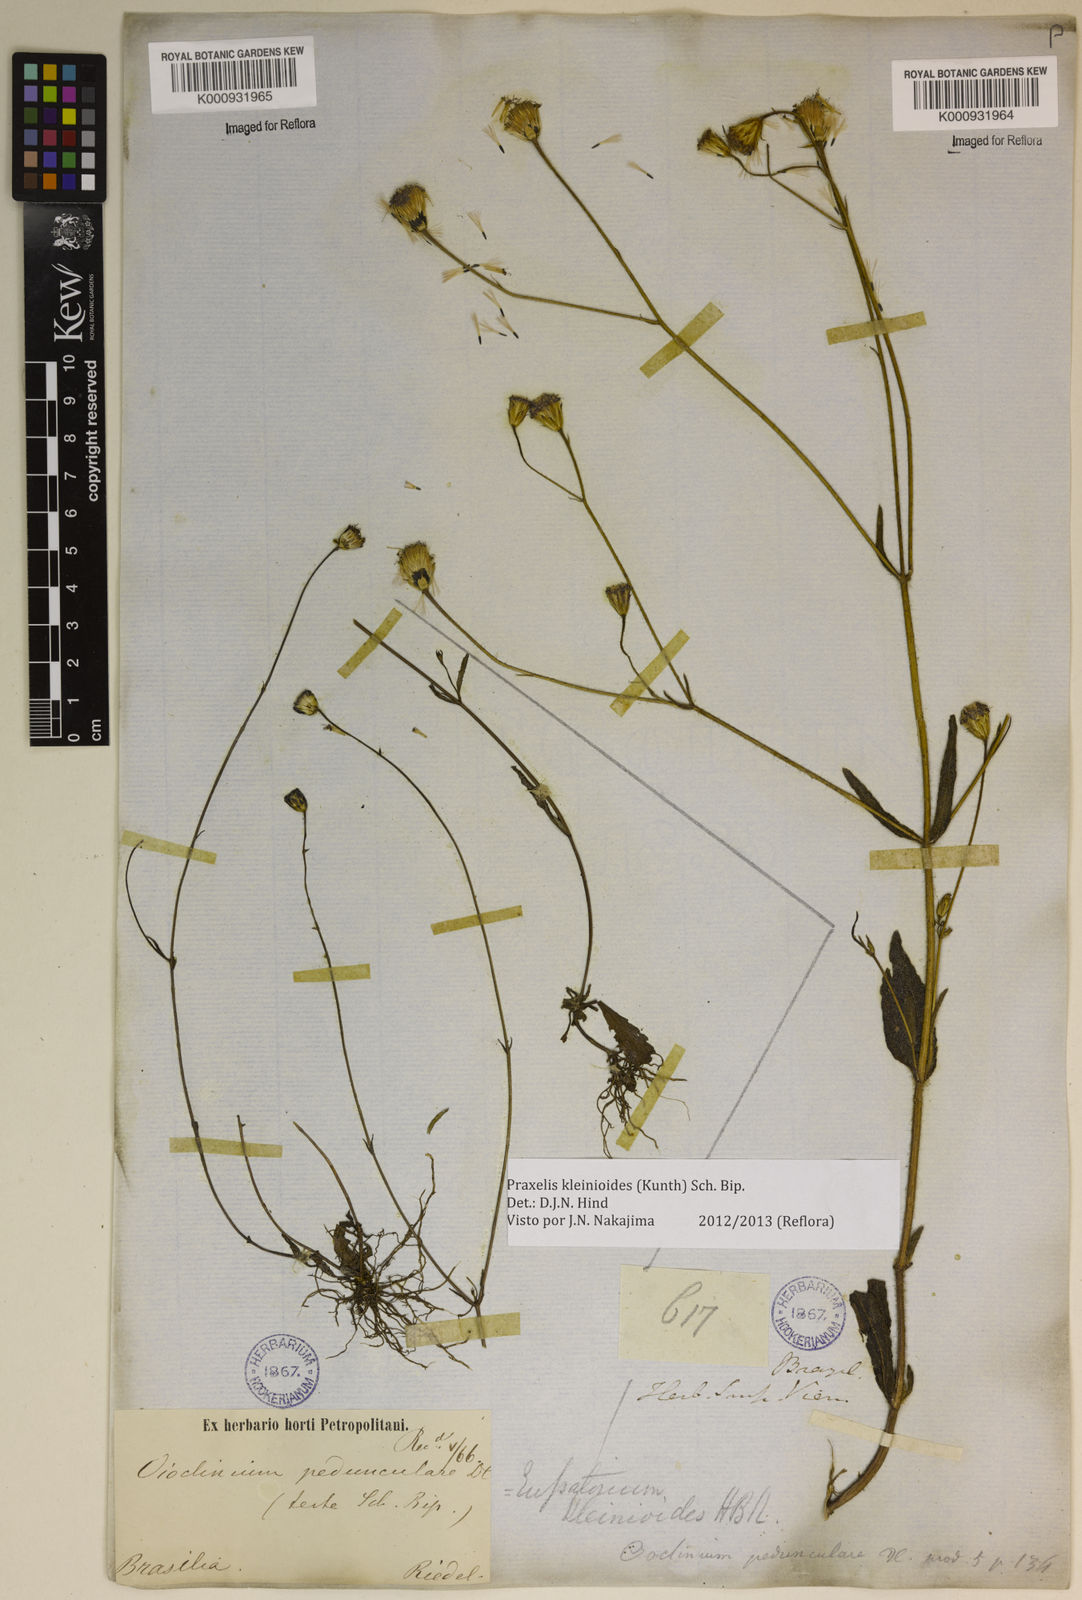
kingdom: Plantae
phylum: Tracheophyta
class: Magnoliopsida
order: Asterales
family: Asteraceae
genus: Praxelis
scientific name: Praxelis kleinioides
